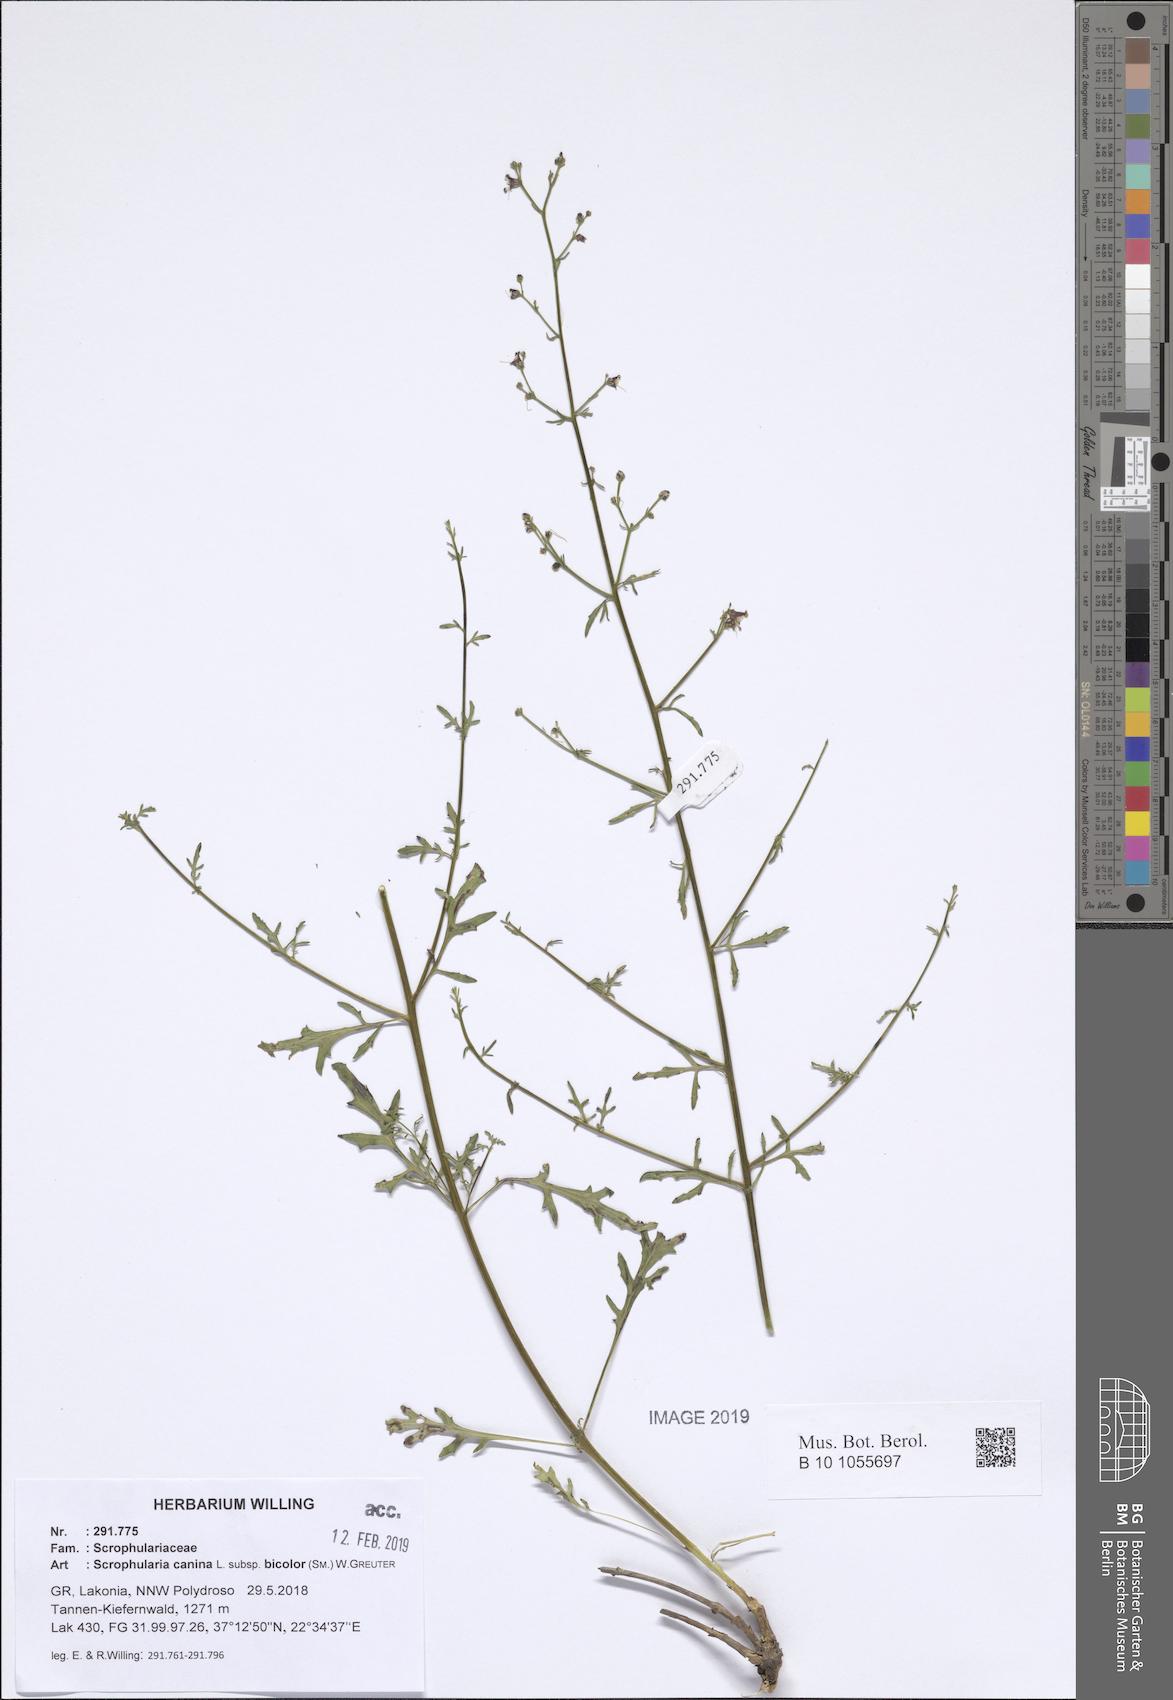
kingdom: Plantae
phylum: Tracheophyta
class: Magnoliopsida
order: Lamiales
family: Scrophulariaceae
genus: Scrophularia
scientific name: Scrophularia canina
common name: French figwort
